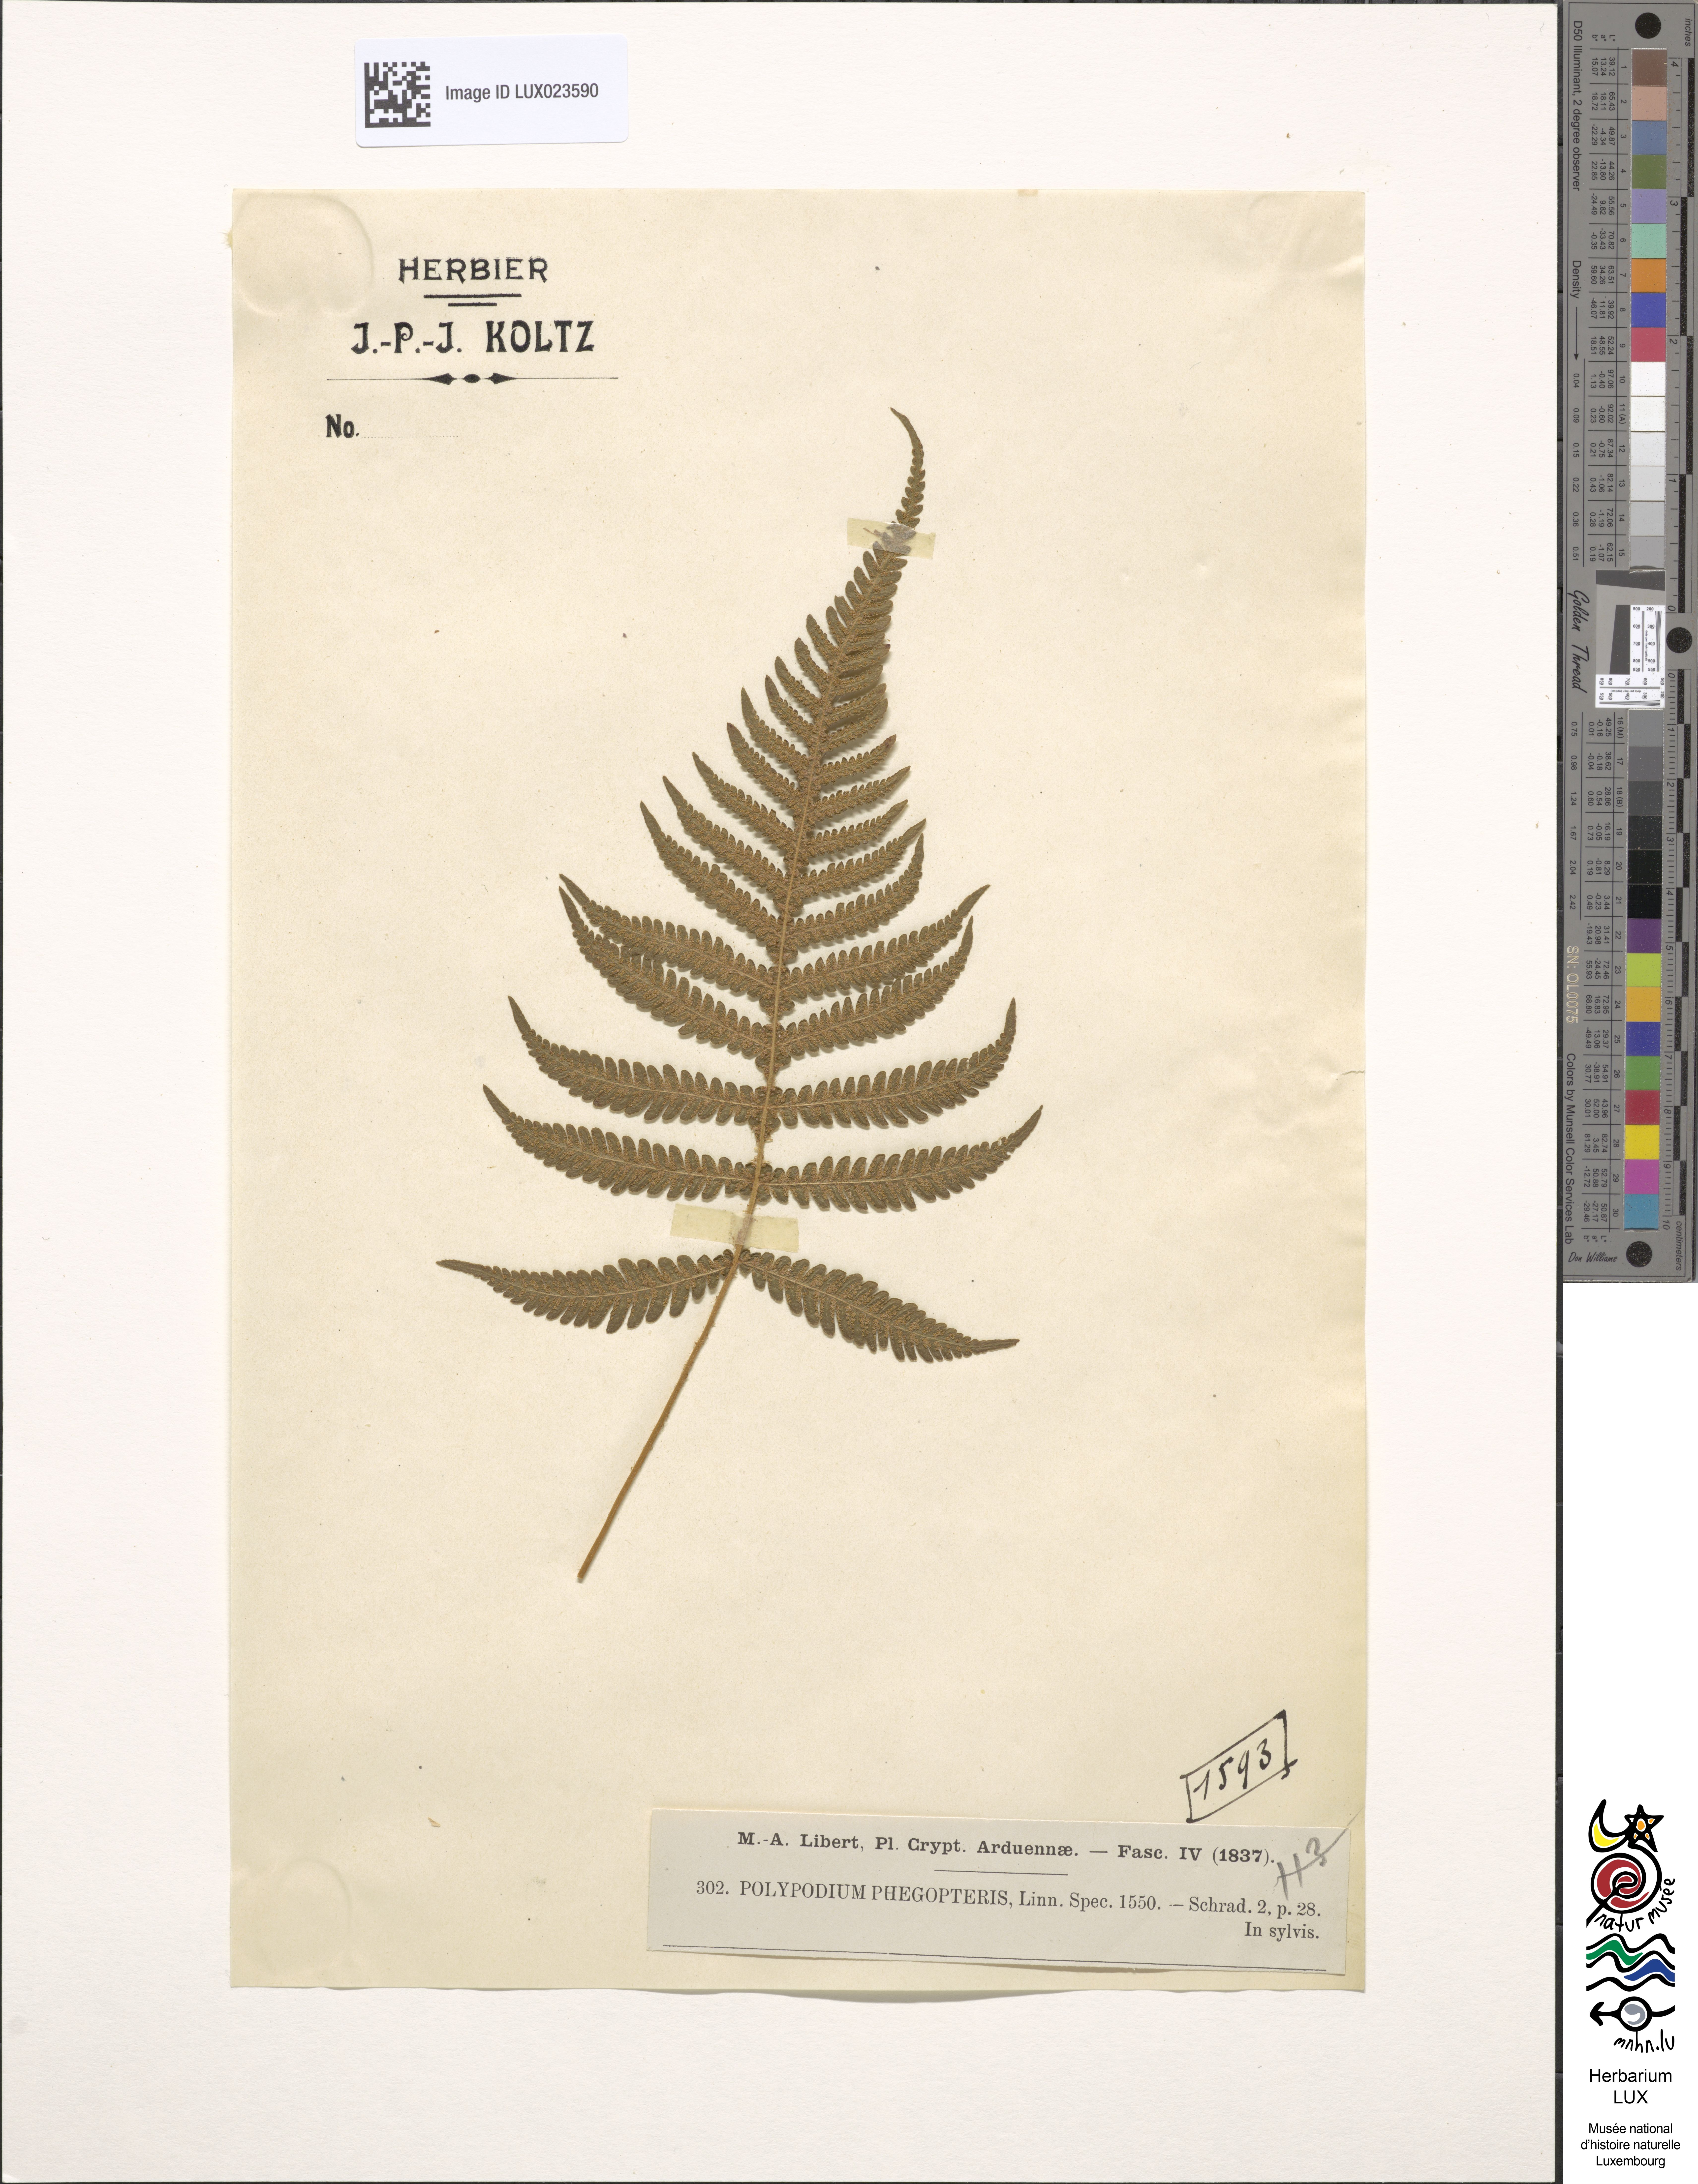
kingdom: Plantae
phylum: Tracheophyta
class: Polypodiopsida
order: Polypodiales
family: Thelypteridaceae
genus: Phegopteris
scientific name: Phegopteris connectilis
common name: Beech fern
